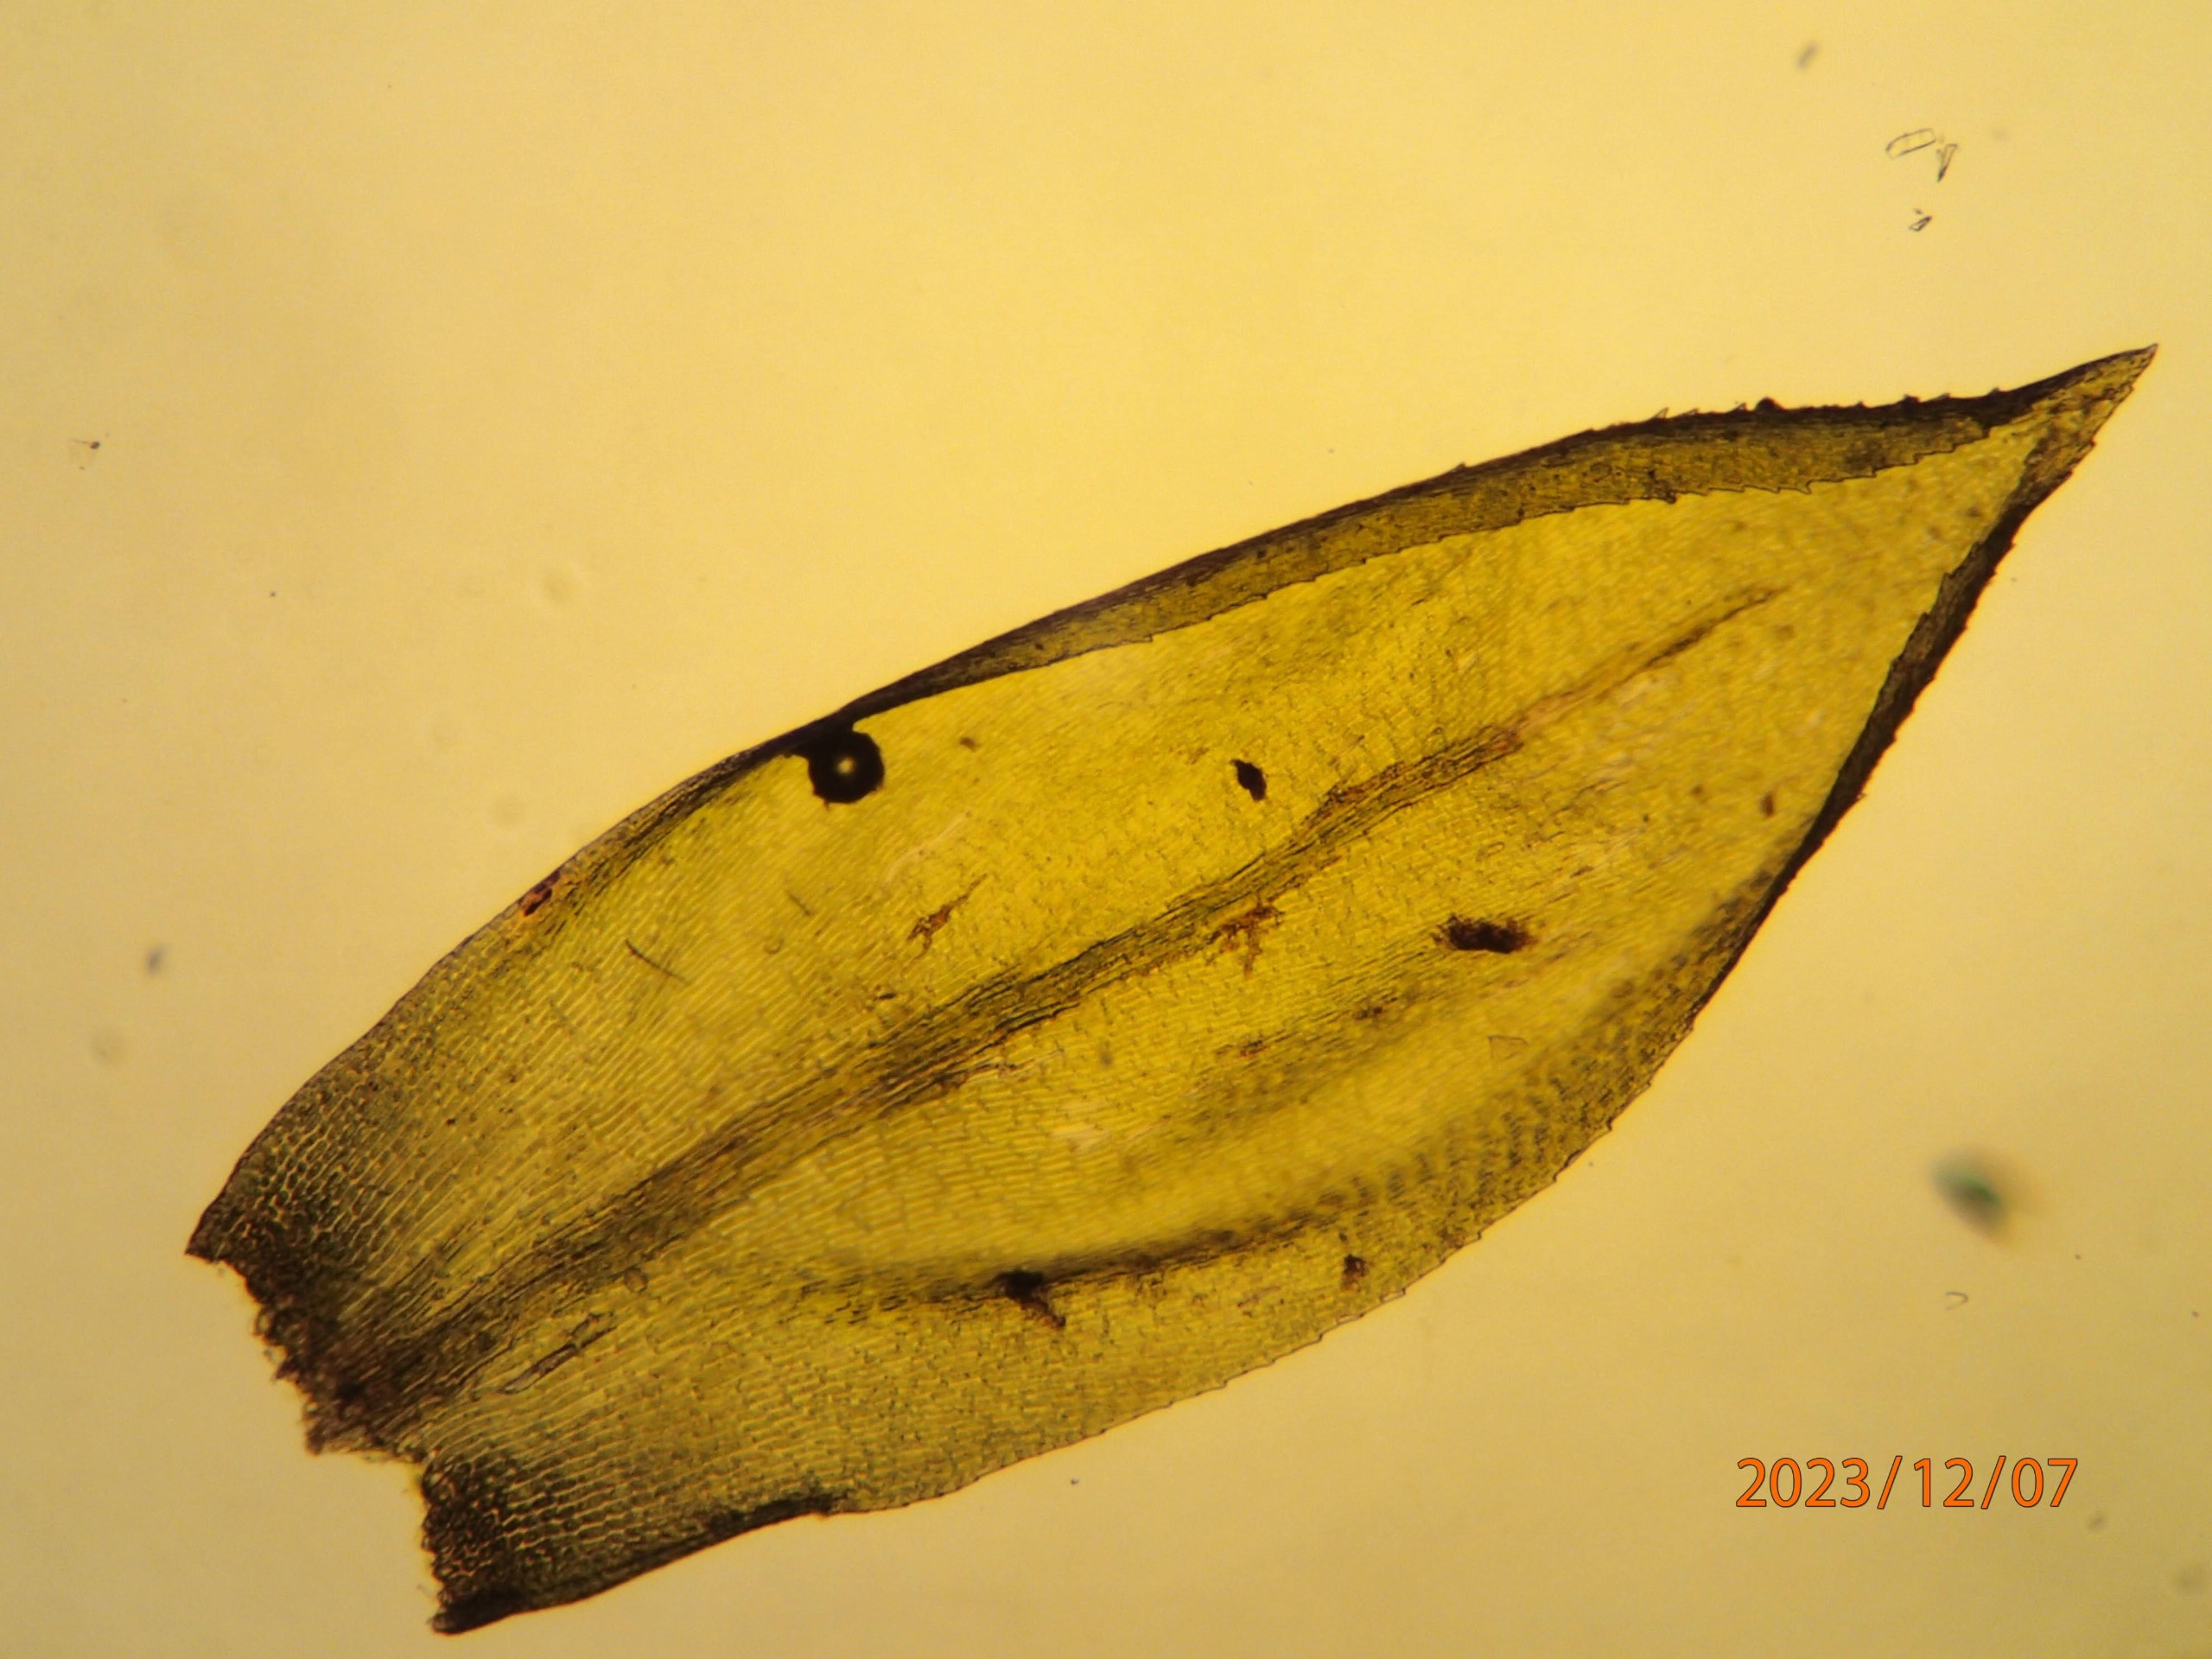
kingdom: Plantae
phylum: Bryophyta
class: Bryopsida
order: Hypnales
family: Lembophyllaceae
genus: Isothecium
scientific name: Isothecium alopecuroides
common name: Stor stammemos
